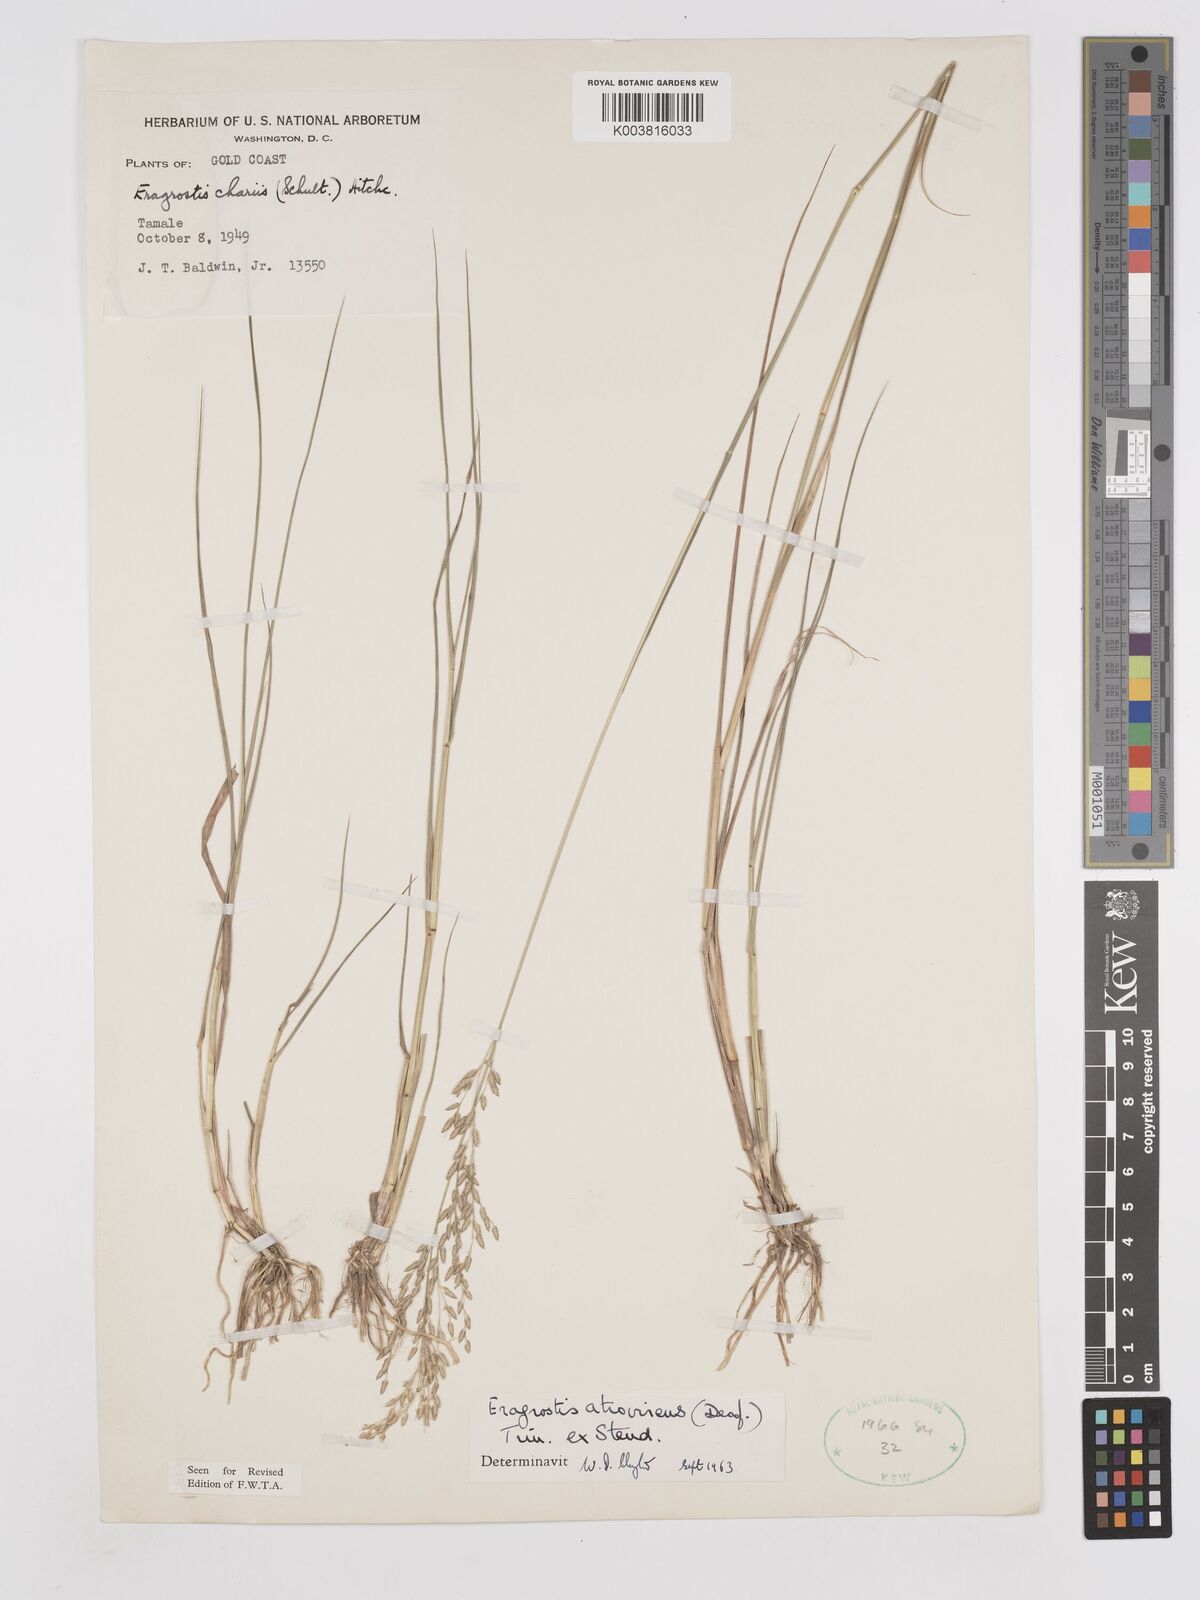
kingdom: Plantae
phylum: Tracheophyta
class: Liliopsida
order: Poales
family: Poaceae
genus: Eragrostis
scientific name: Eragrostis atrovirens
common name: Thalia lovegrass
